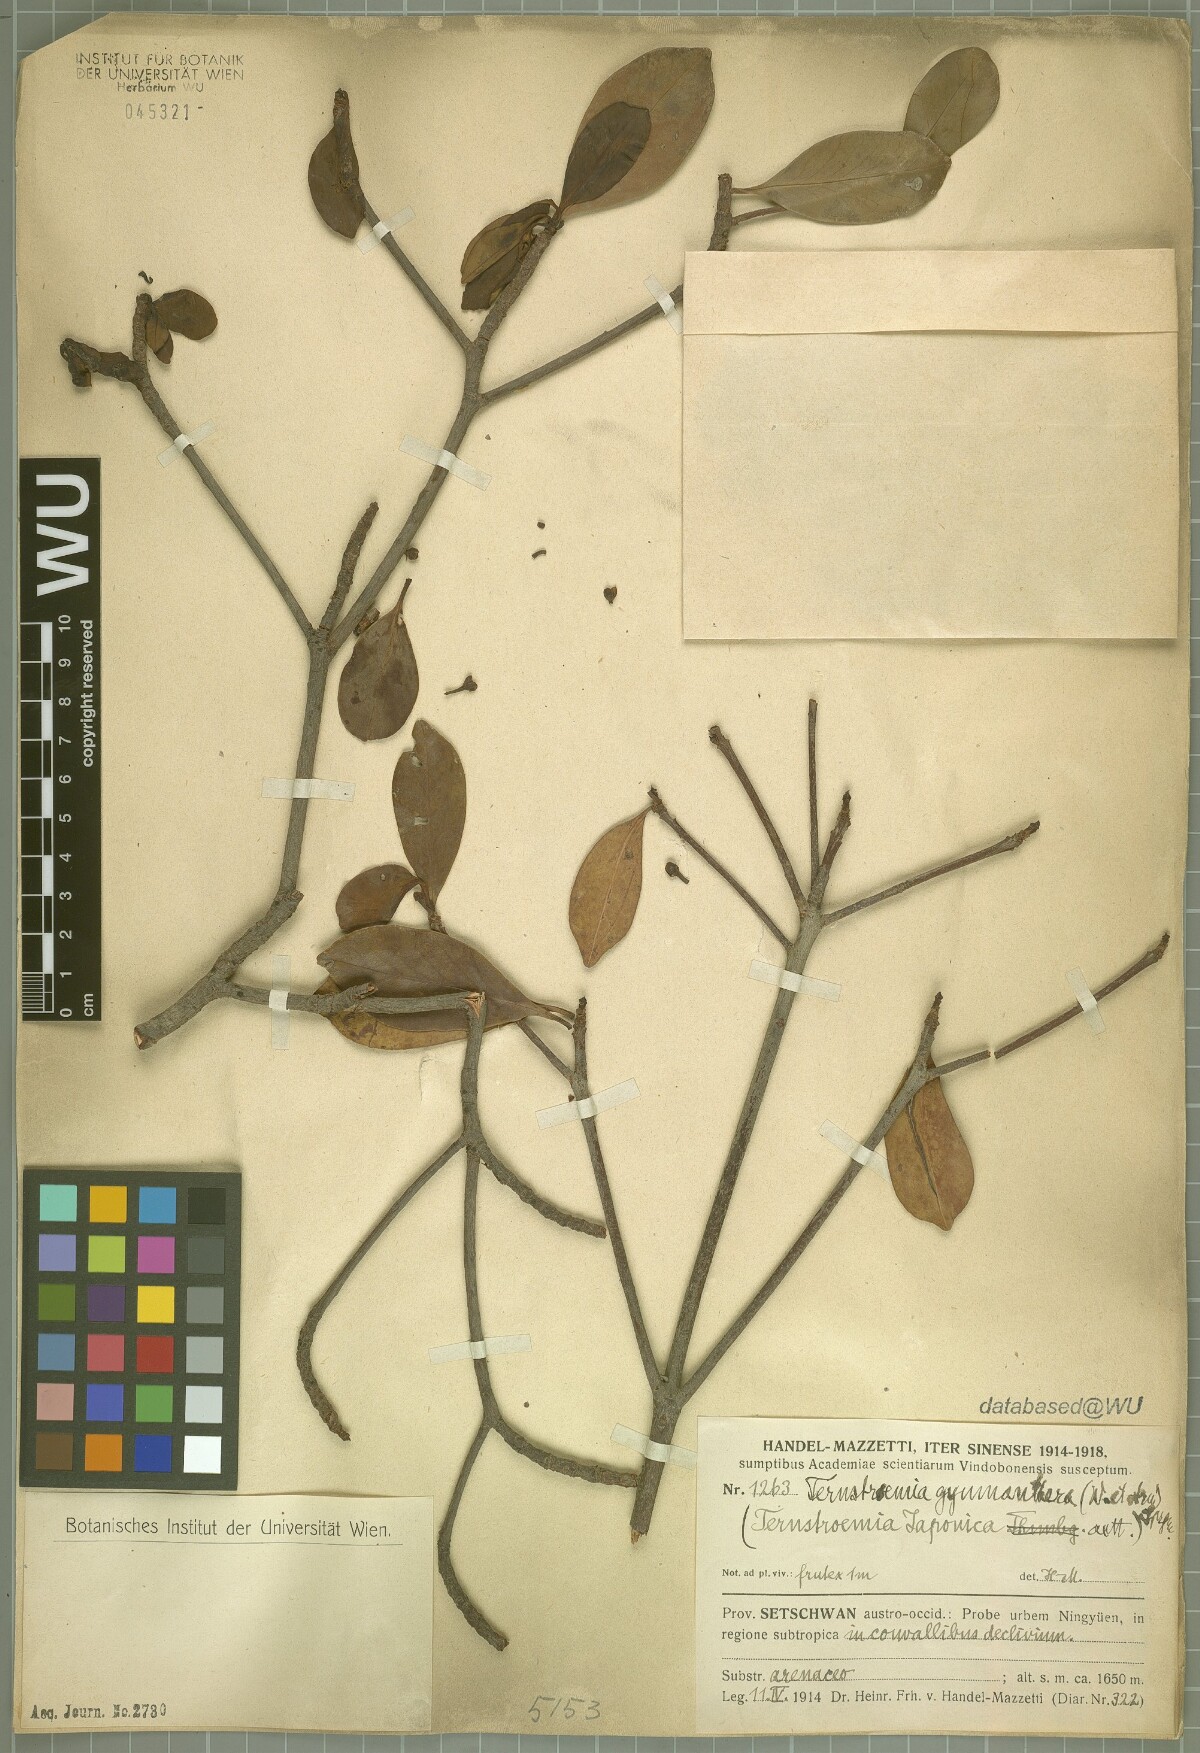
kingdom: Plantae
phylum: Tracheophyta
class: Magnoliopsida
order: Ericales
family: Pentaphylacaceae
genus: Ternstroemia
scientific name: Ternstroemia gymnanthera
